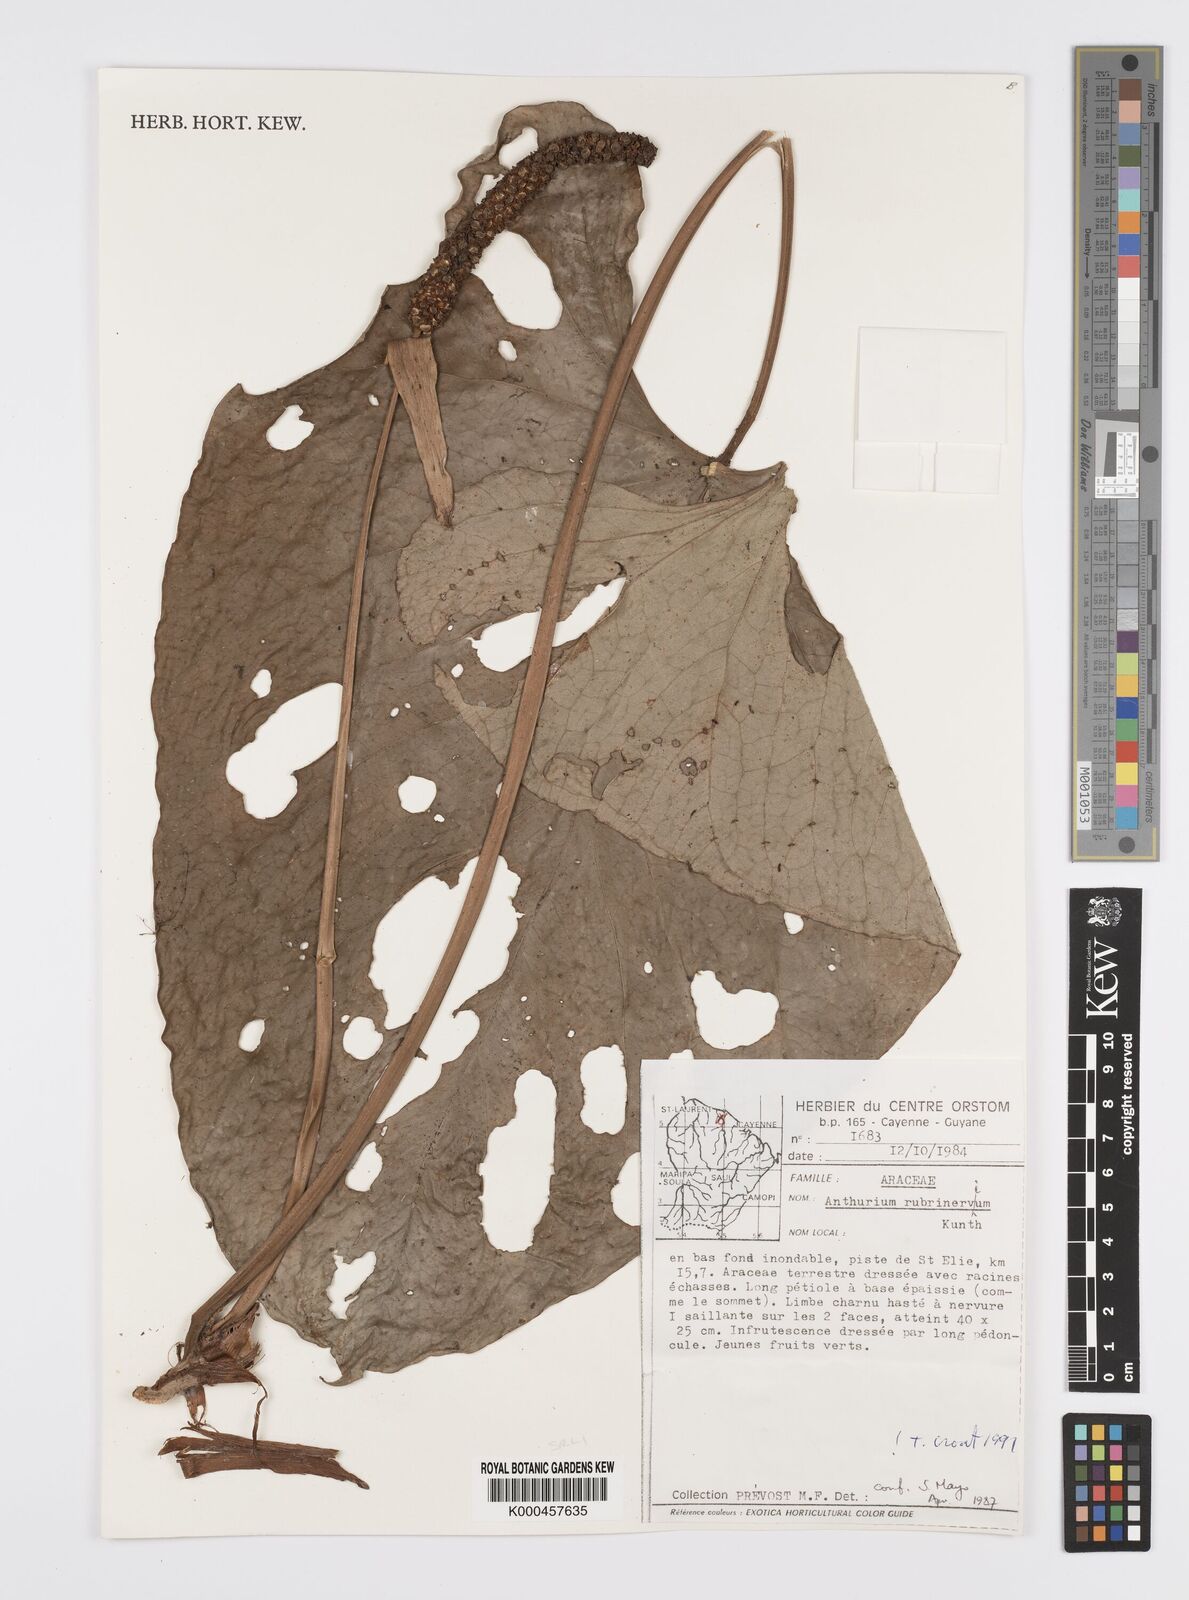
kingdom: Plantae
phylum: Tracheophyta
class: Liliopsida
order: Alismatales
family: Araceae
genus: Anthurium
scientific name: Anthurium sagittatum
